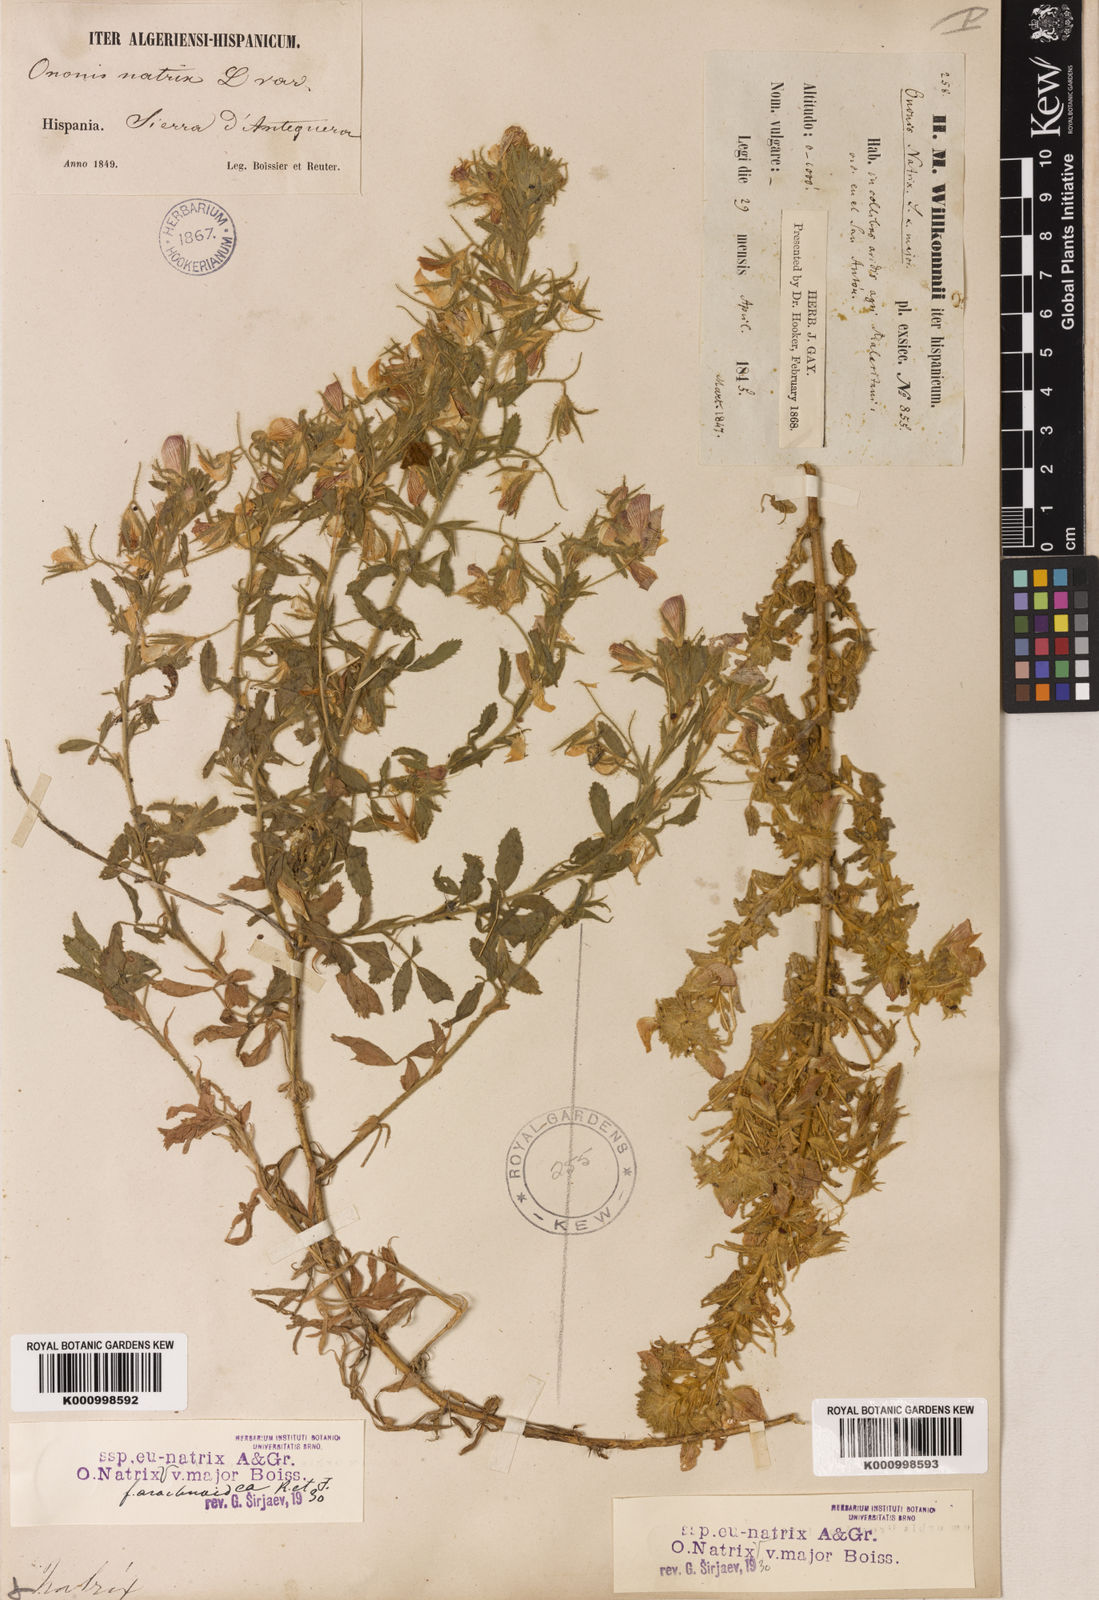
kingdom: Plantae
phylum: Tracheophyta
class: Magnoliopsida
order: Fabales
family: Fabaceae
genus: Ononis
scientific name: Ononis natrix
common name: Yellow restharrow
